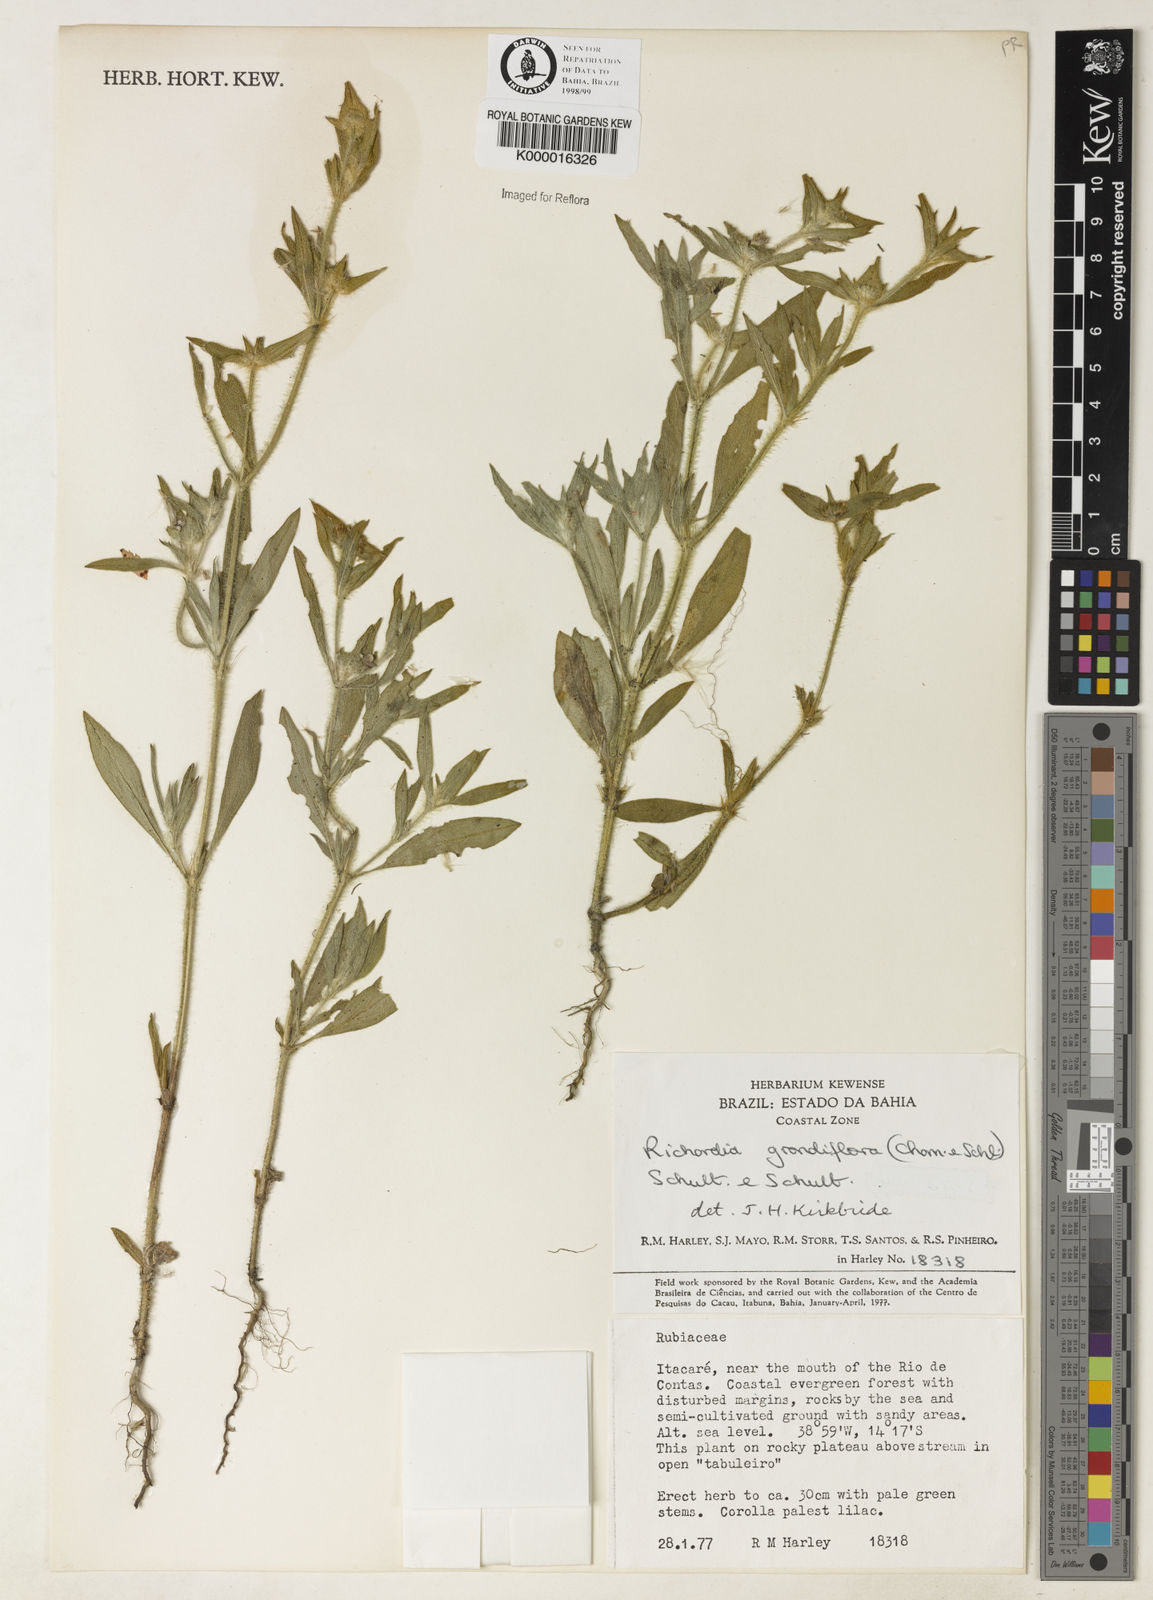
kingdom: Plantae
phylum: Tracheophyta
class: Magnoliopsida
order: Gentianales
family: Rubiaceae
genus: Richardia
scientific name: Richardia grandiflora
